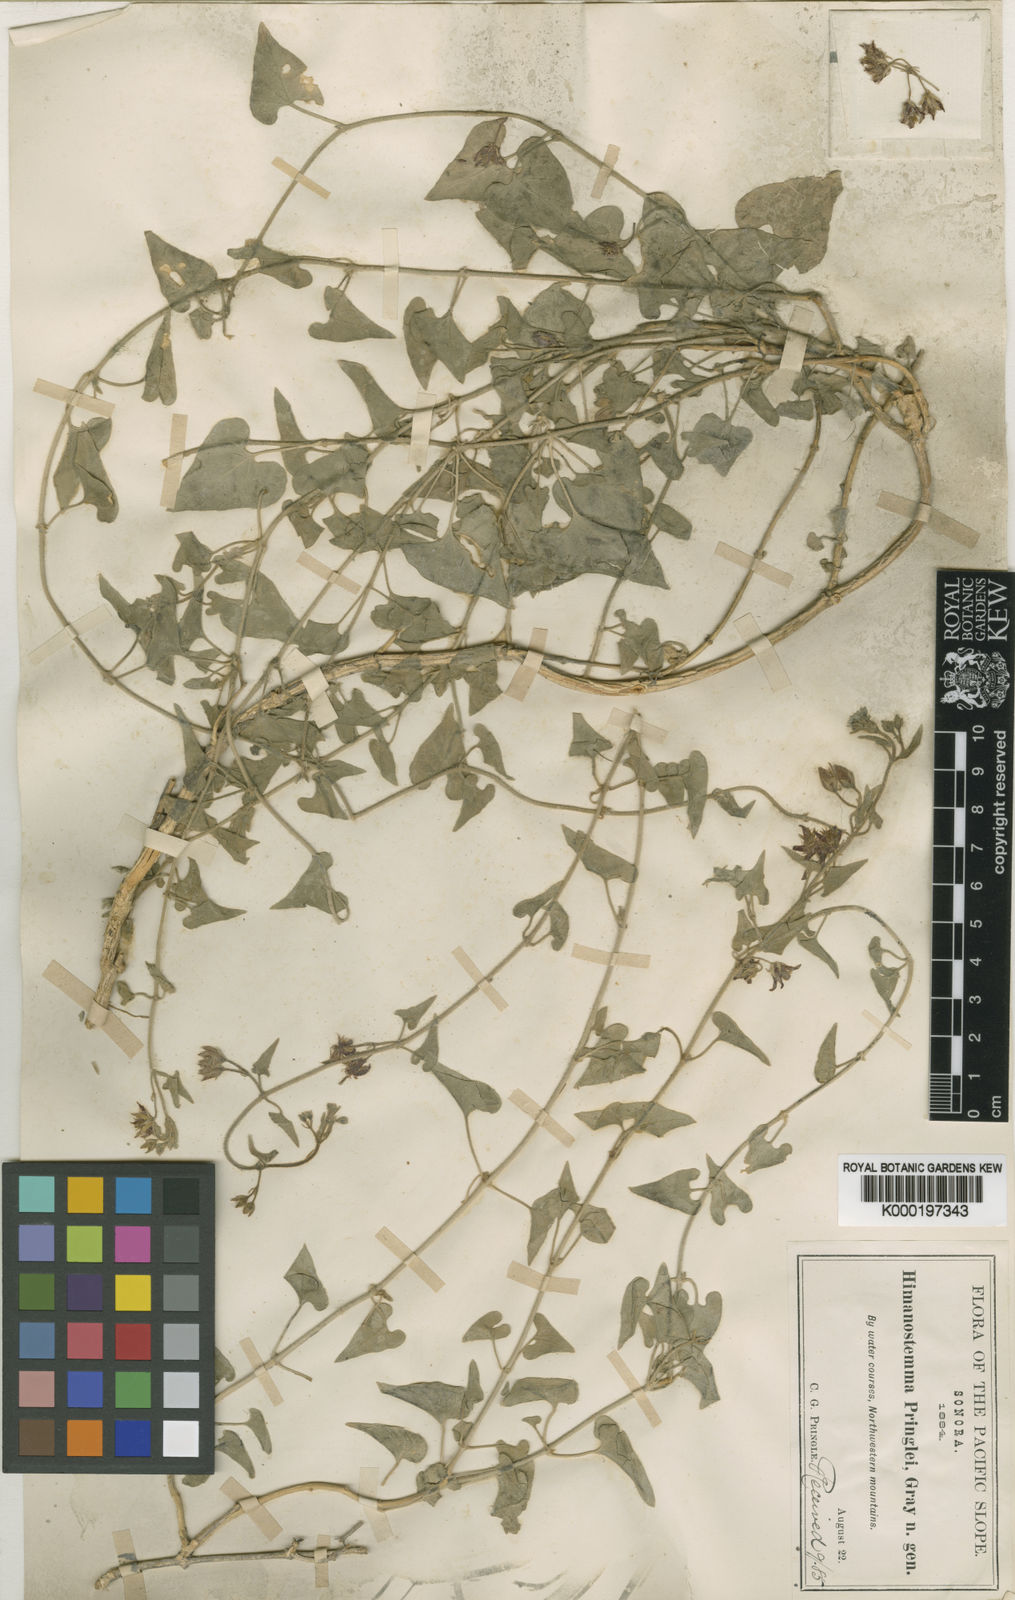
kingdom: Plantae
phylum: Tracheophyta
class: Magnoliopsida
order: Gentianales
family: Apocynaceae
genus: Metastelma
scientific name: Metastelma pringlei
